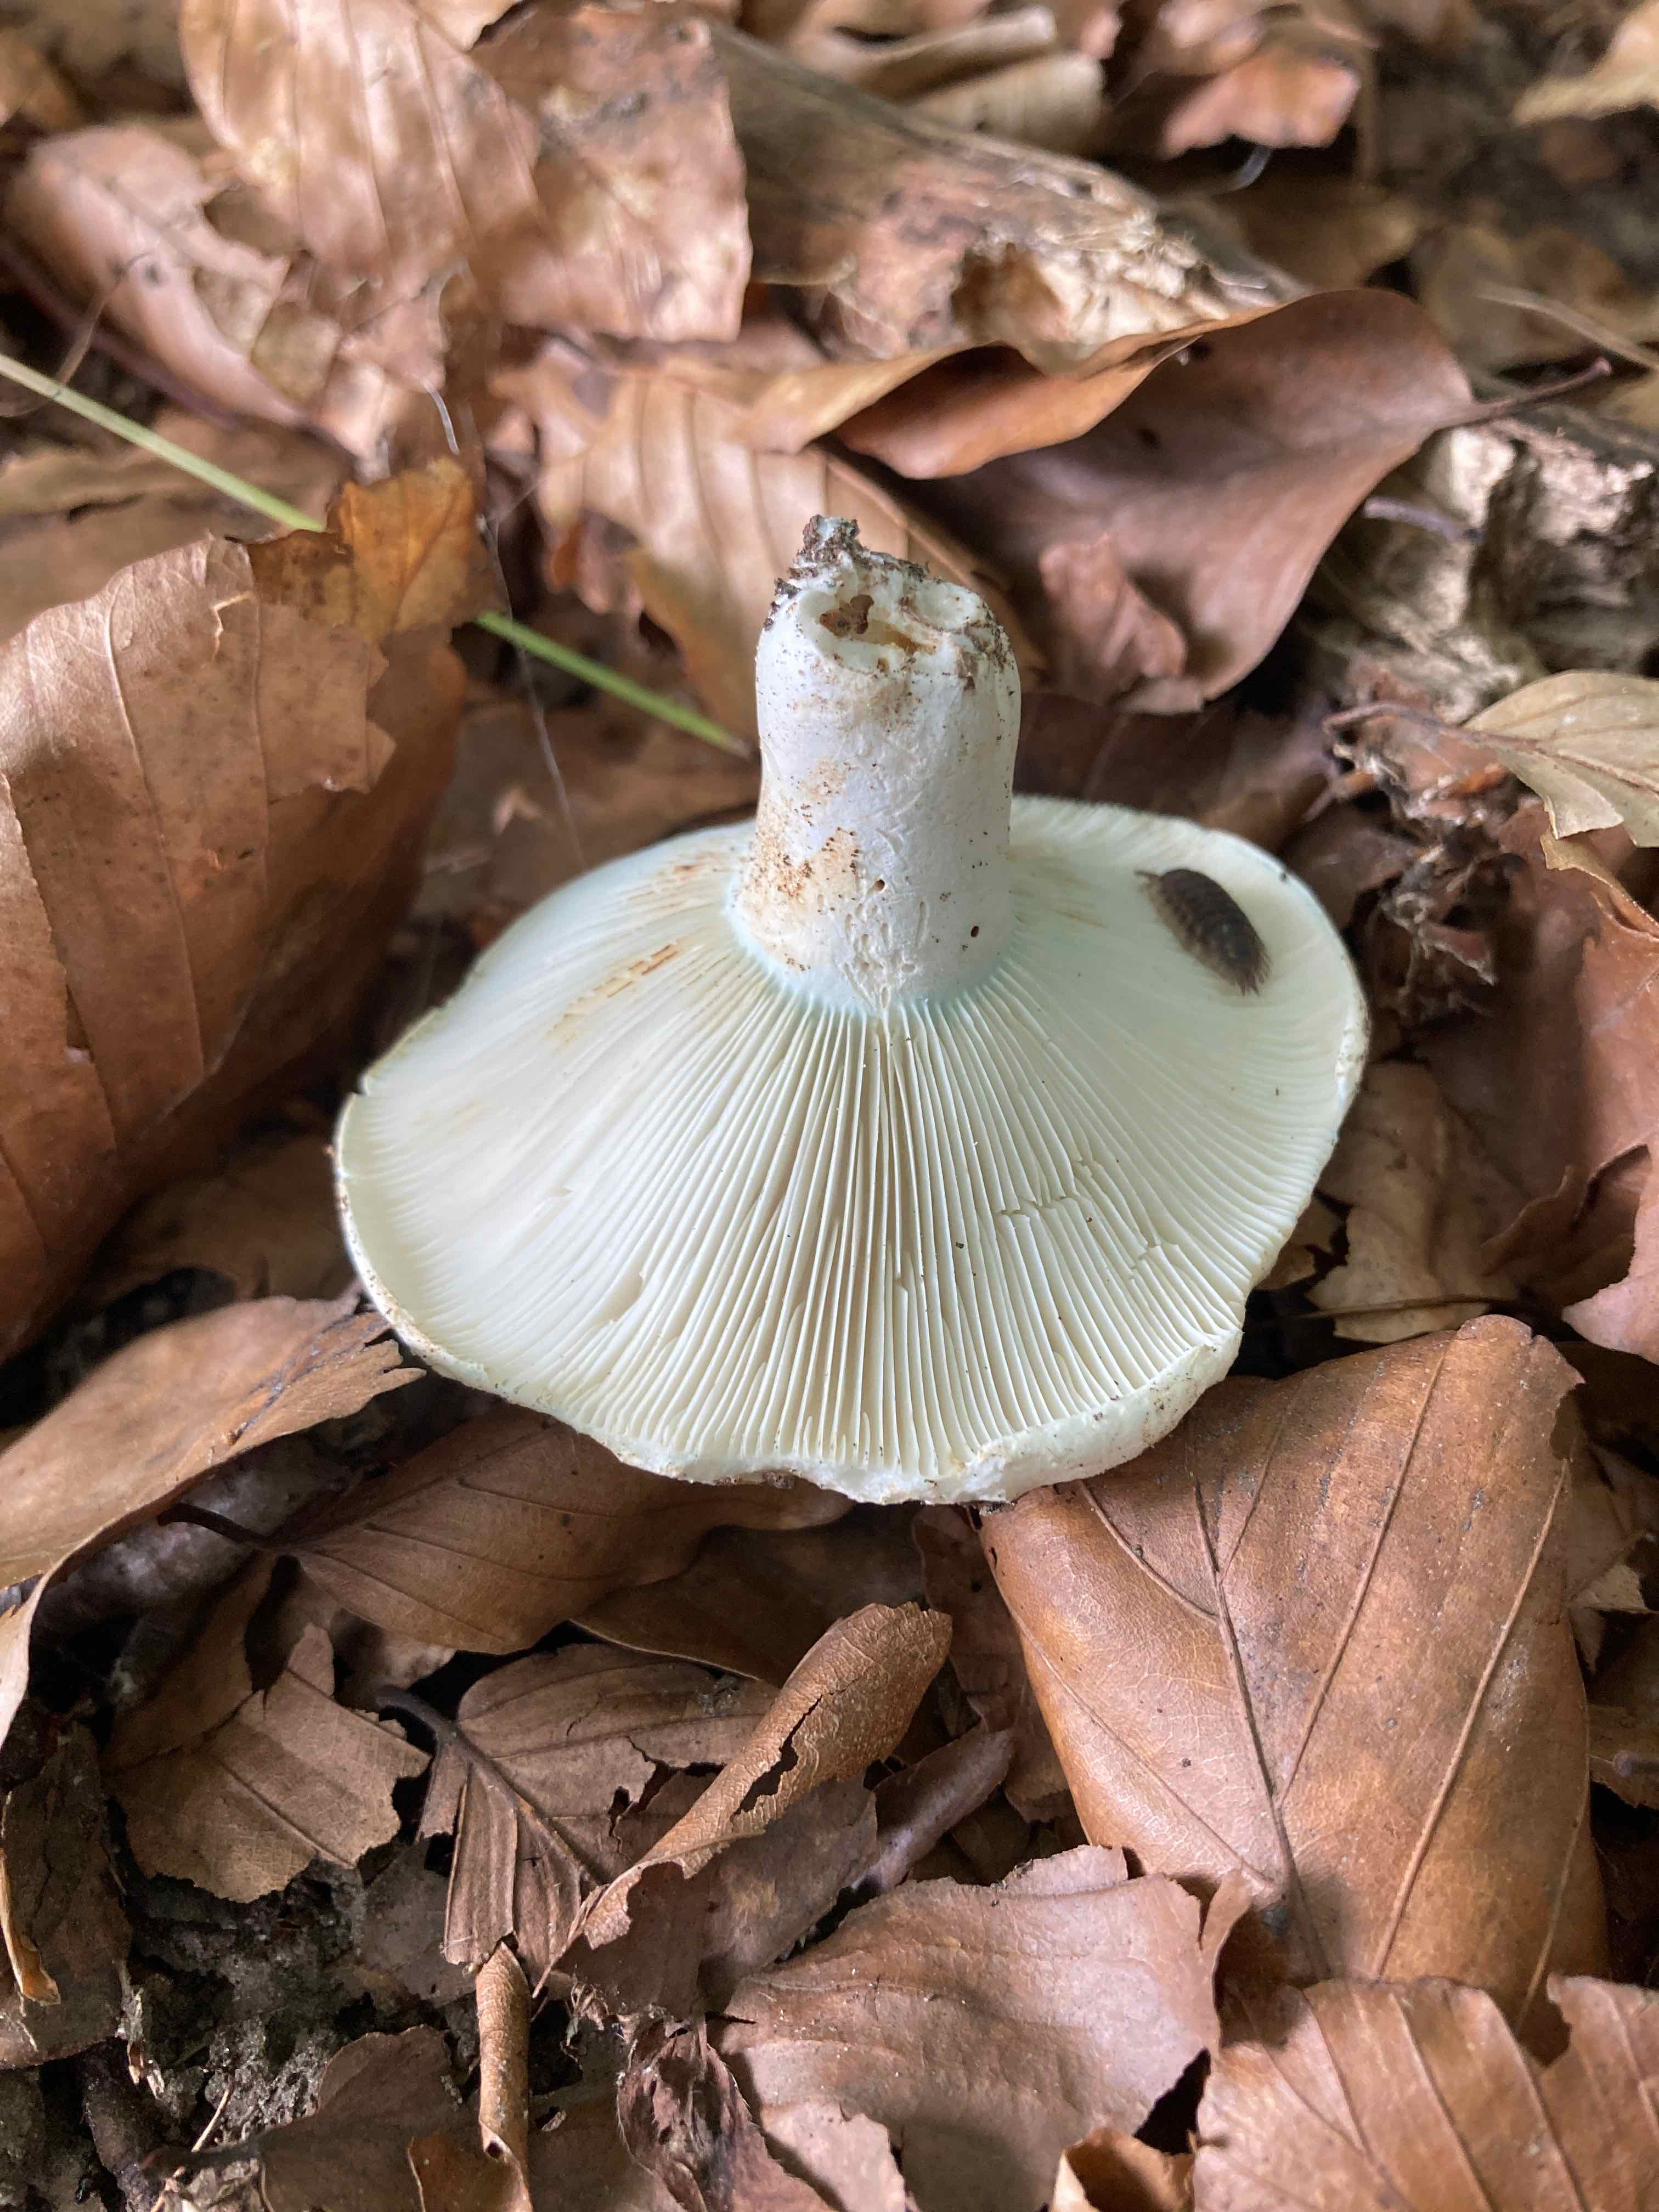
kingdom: Fungi
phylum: Basidiomycota
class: Agaricomycetes
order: Russulales
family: Russulaceae
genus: Russula
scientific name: Russula chloroides
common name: grønhalset tragt-skørhat
